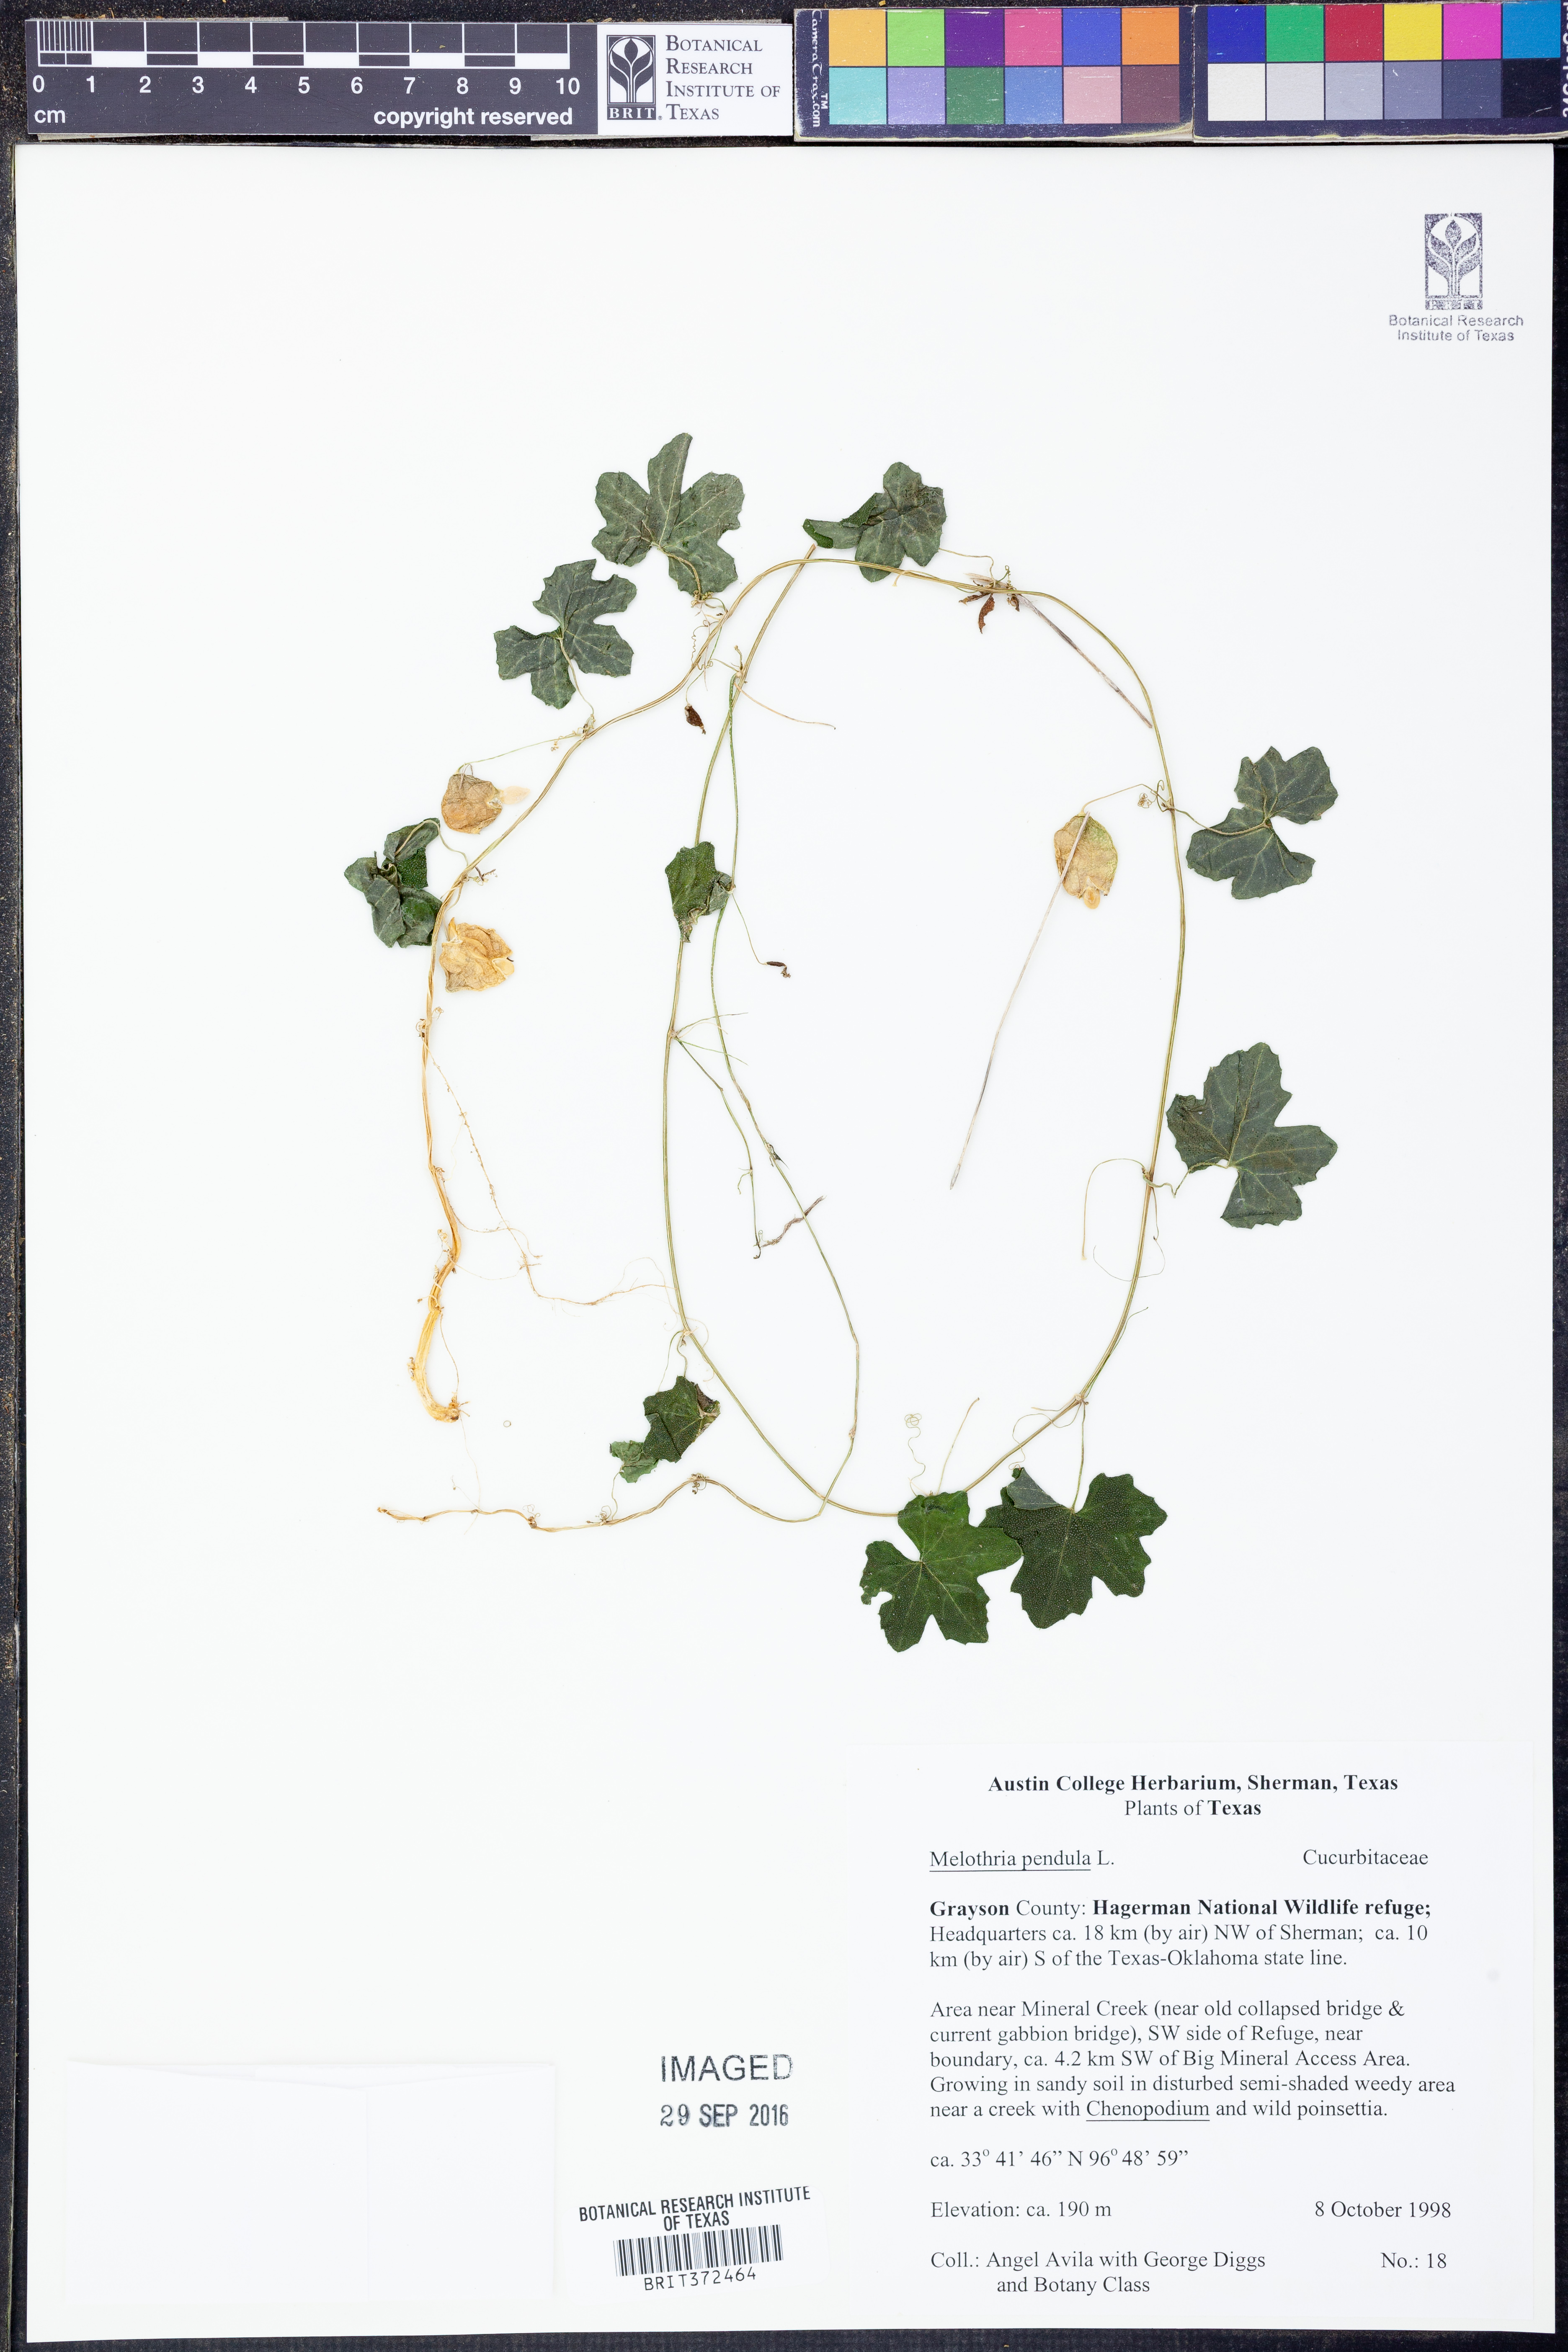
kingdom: Plantae
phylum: Tracheophyta
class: Magnoliopsida
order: Cucurbitales
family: Cucurbitaceae
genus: Melothria
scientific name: Melothria pendula
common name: Creeping-cucumber
